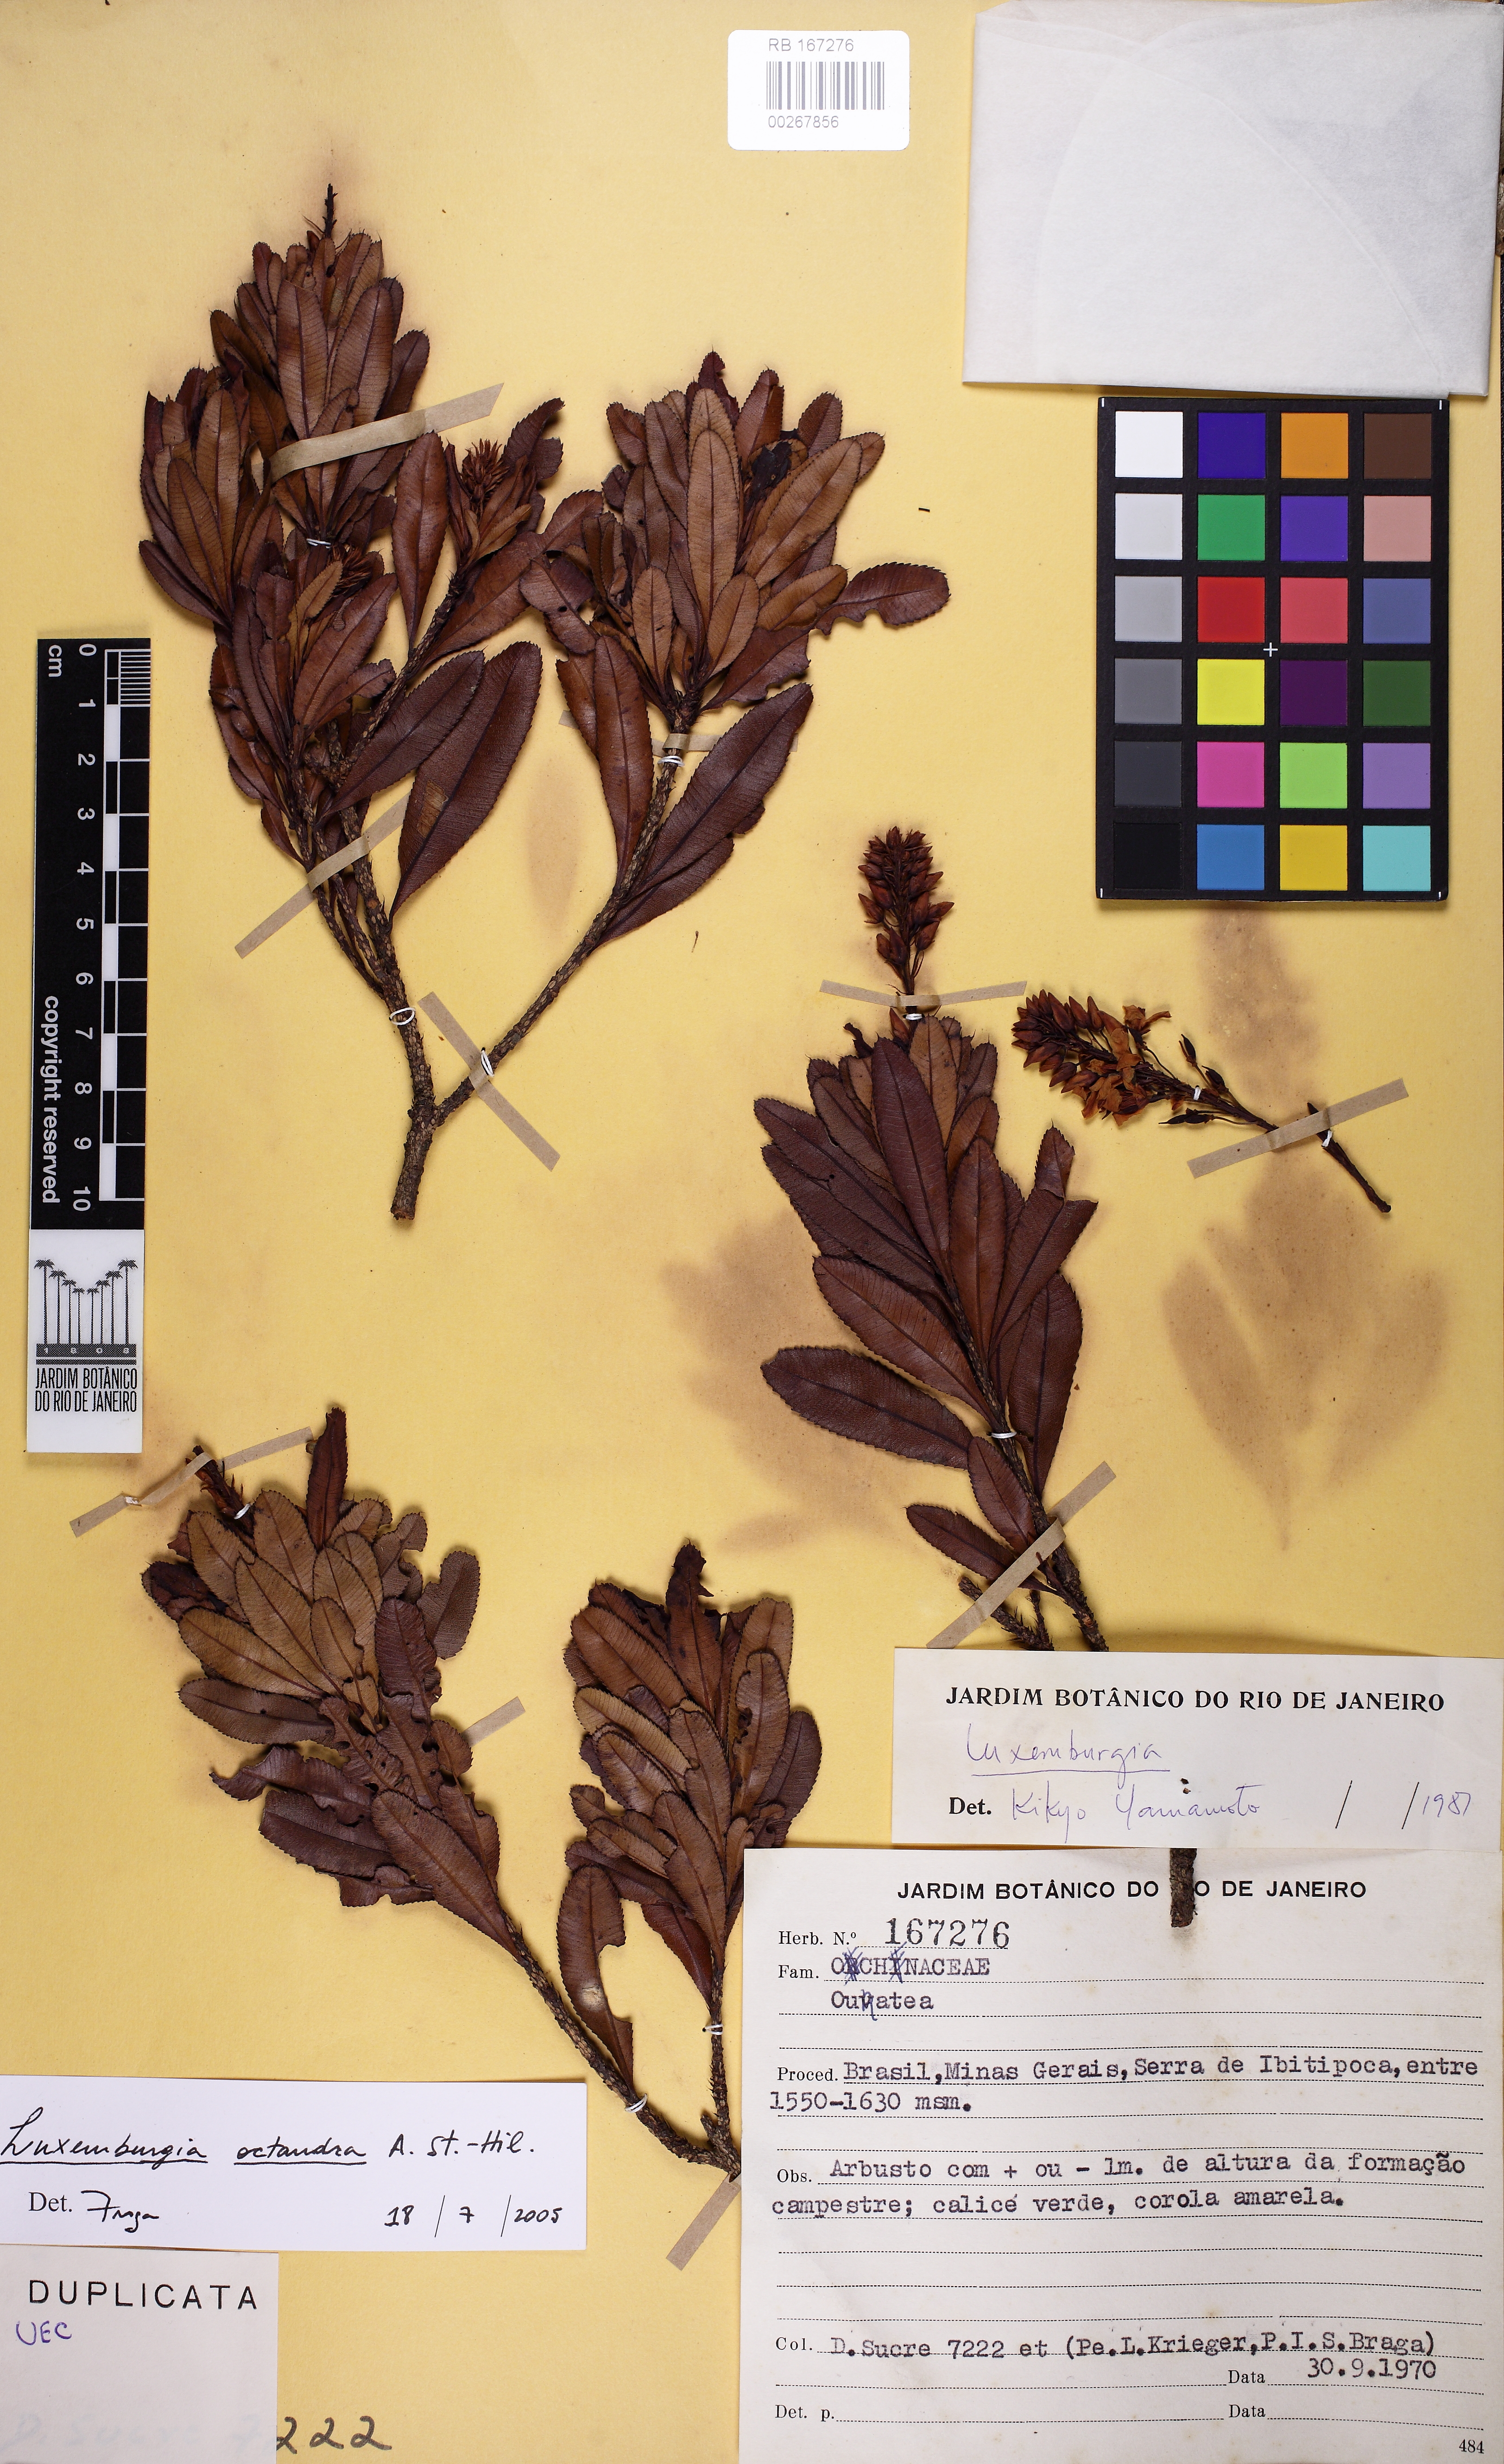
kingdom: Plantae
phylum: Tracheophyta
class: Magnoliopsida
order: Malpighiales
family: Ochnaceae
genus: Luxemburgia
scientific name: Luxemburgia octandra
